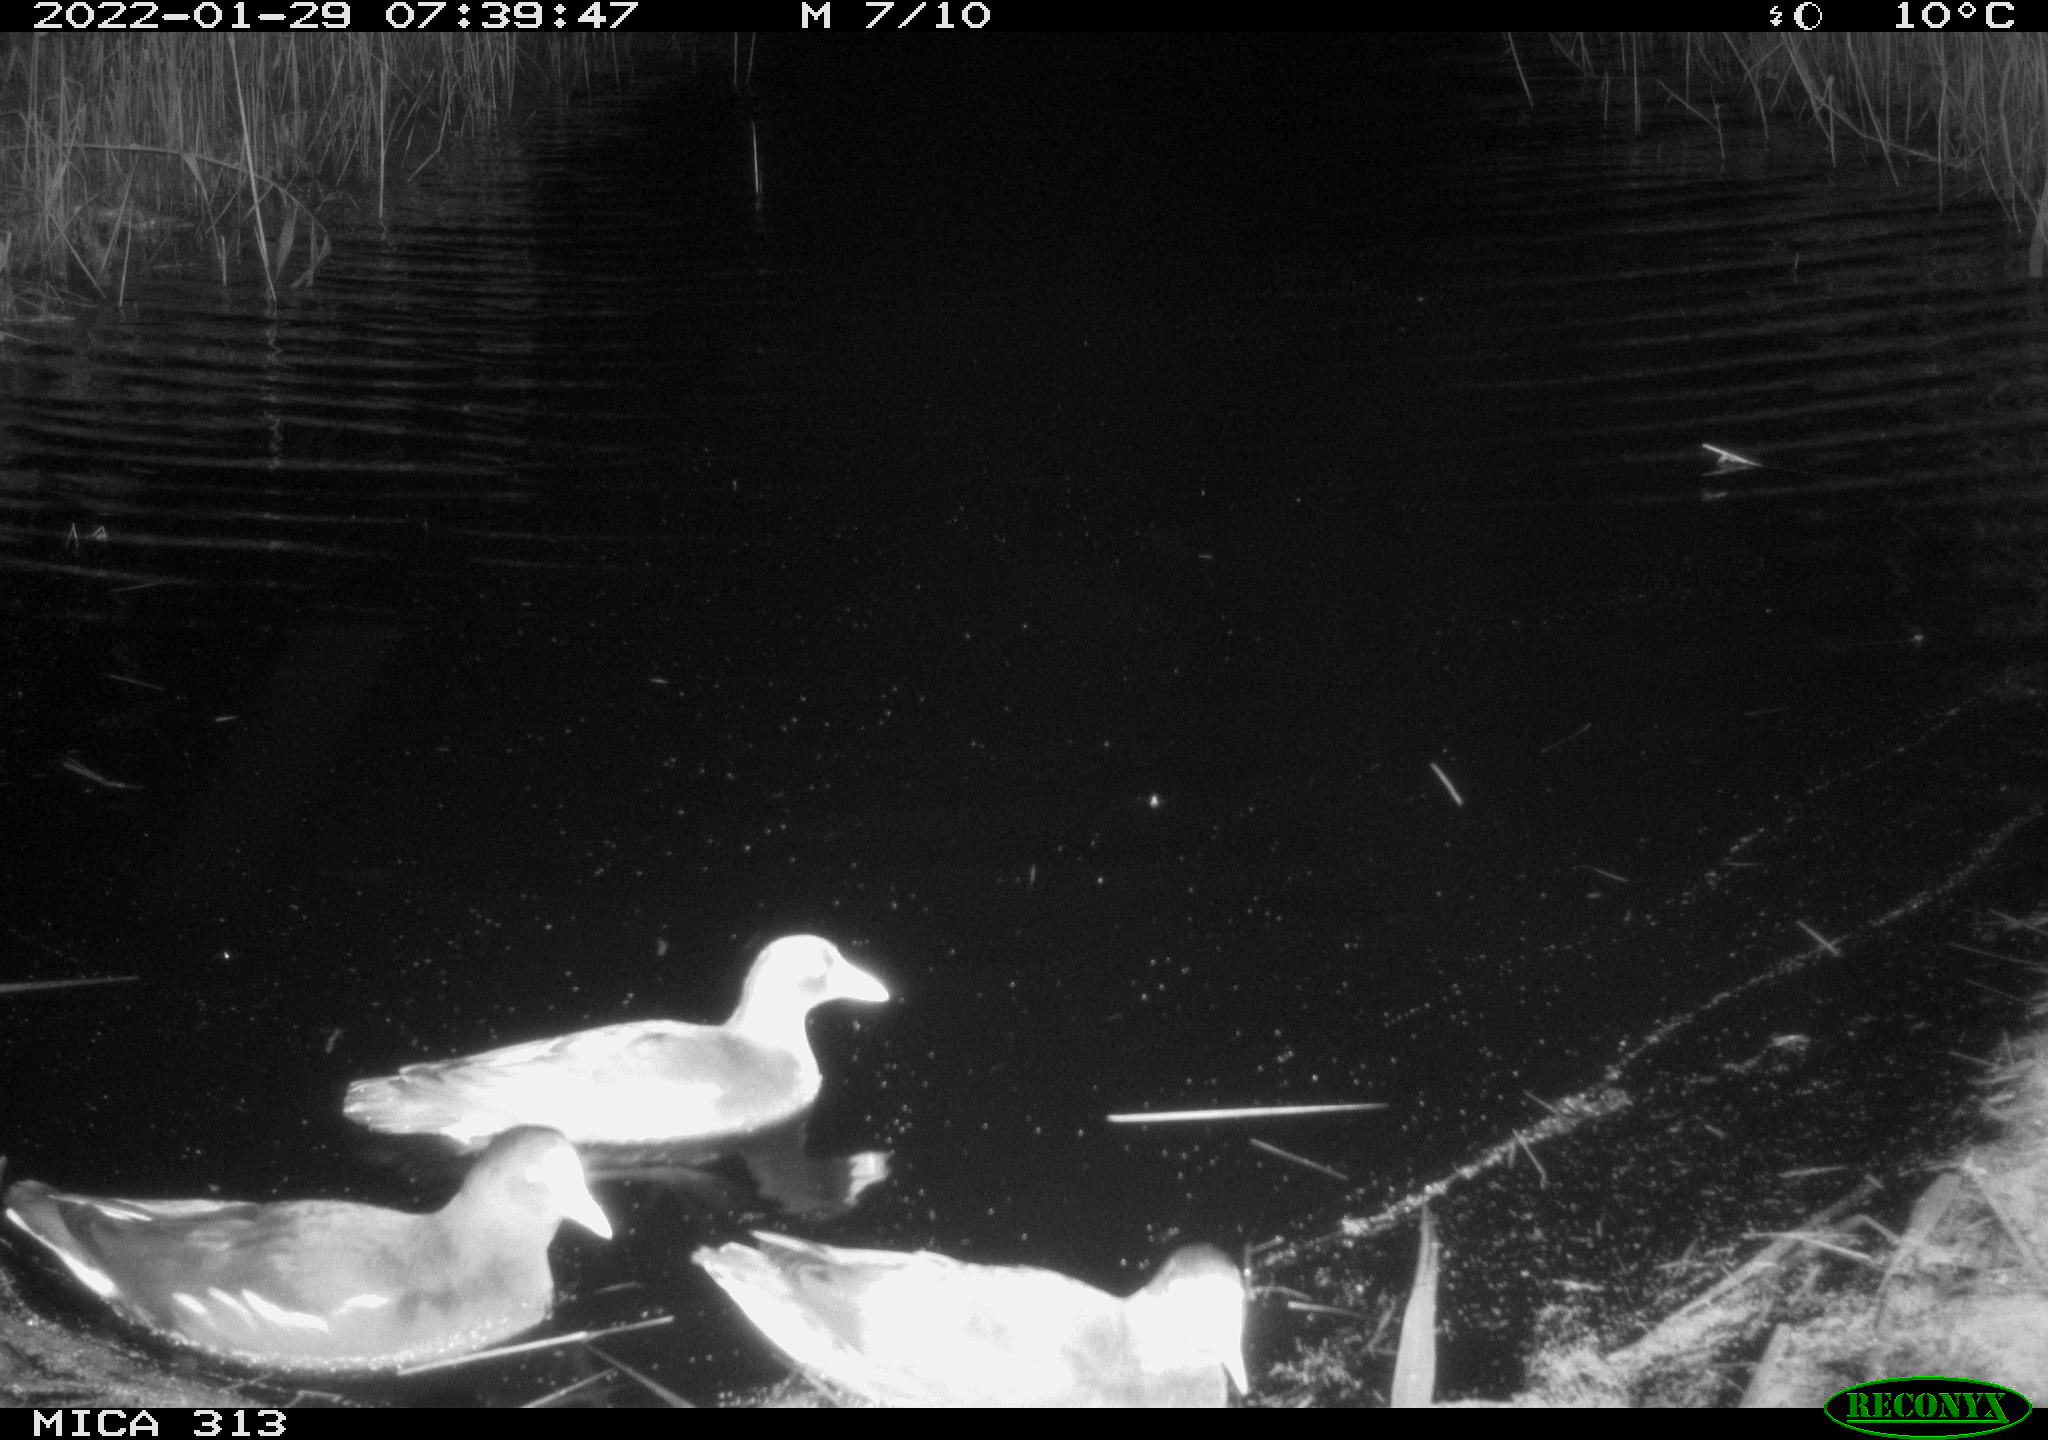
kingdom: Animalia
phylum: Chordata
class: Aves
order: Anseriformes
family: Anatidae
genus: Anas
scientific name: Anas
